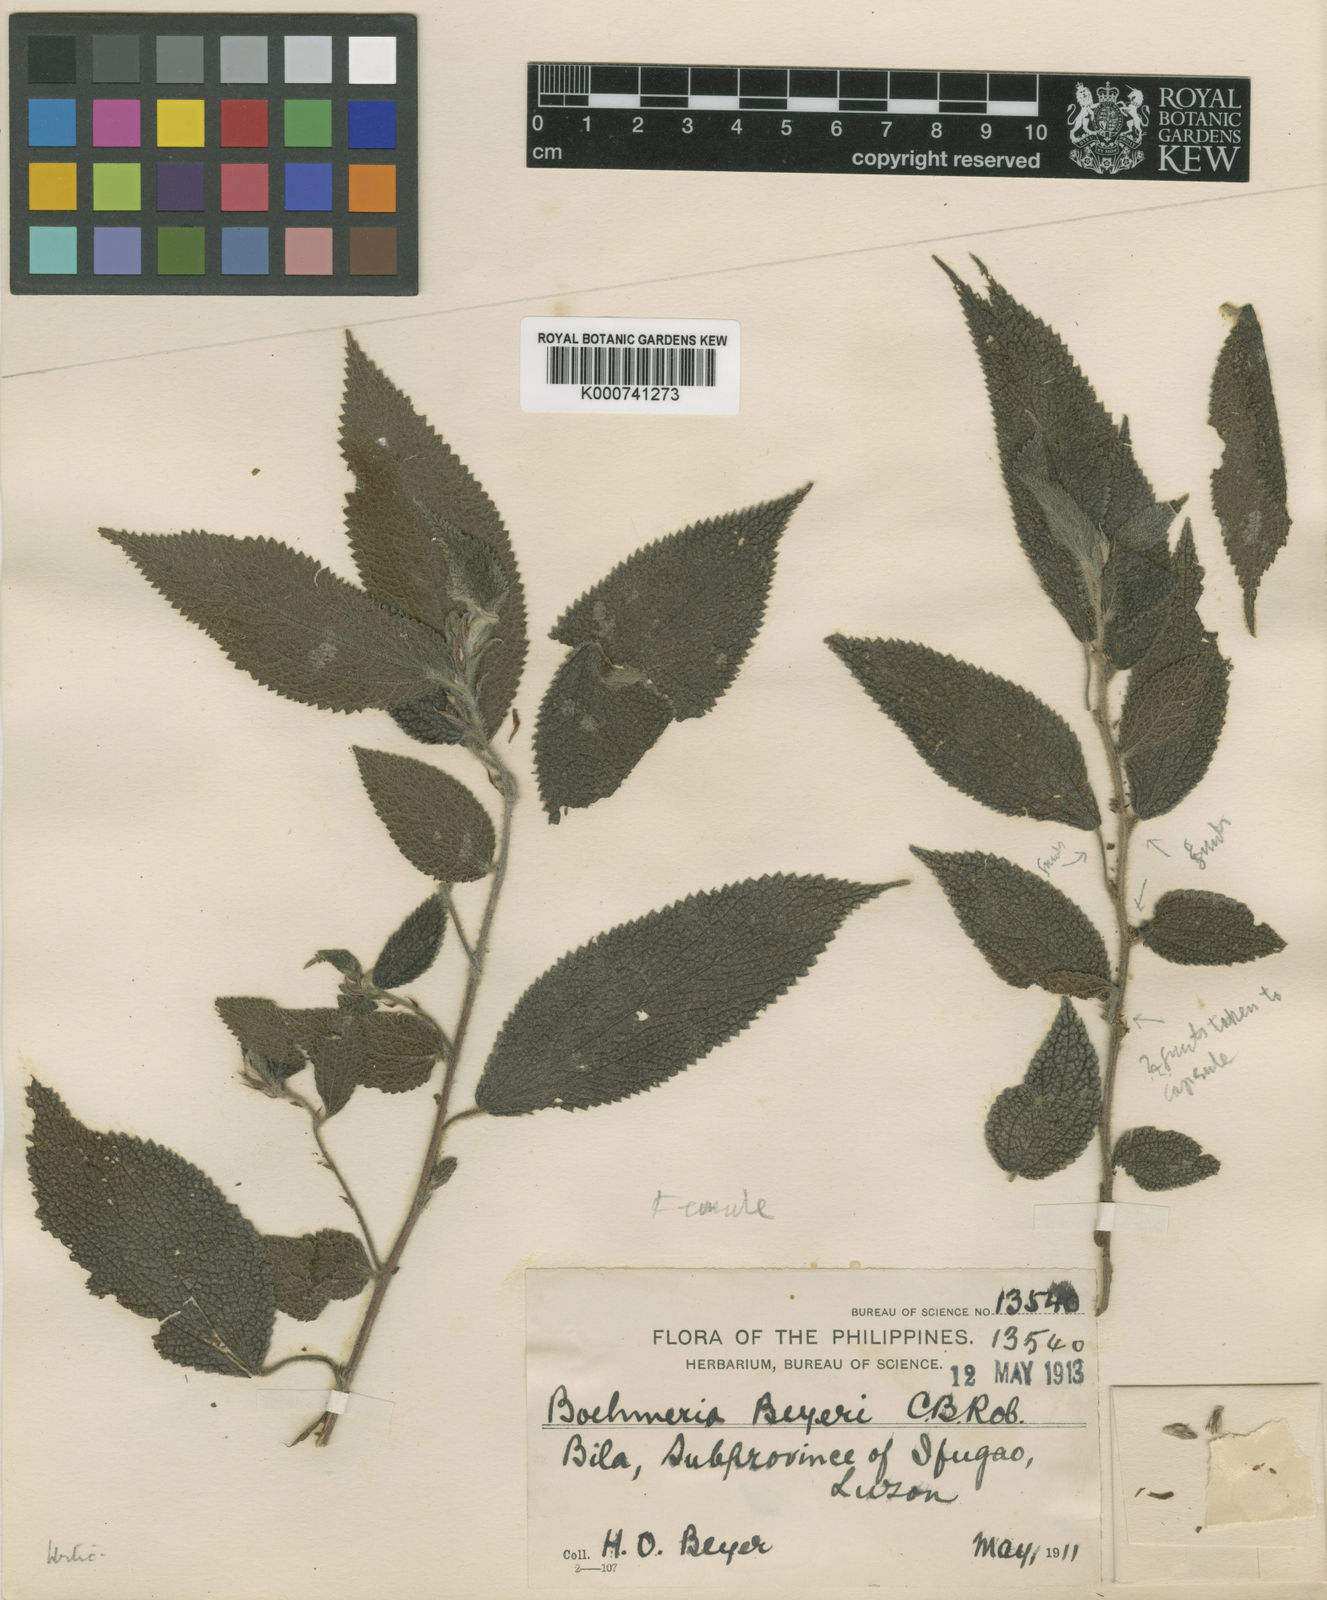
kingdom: Plantae
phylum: Tracheophyta
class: Magnoliopsida
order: Rosales
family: Urticaceae
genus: Boehmeria
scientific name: Boehmeria beyeri
